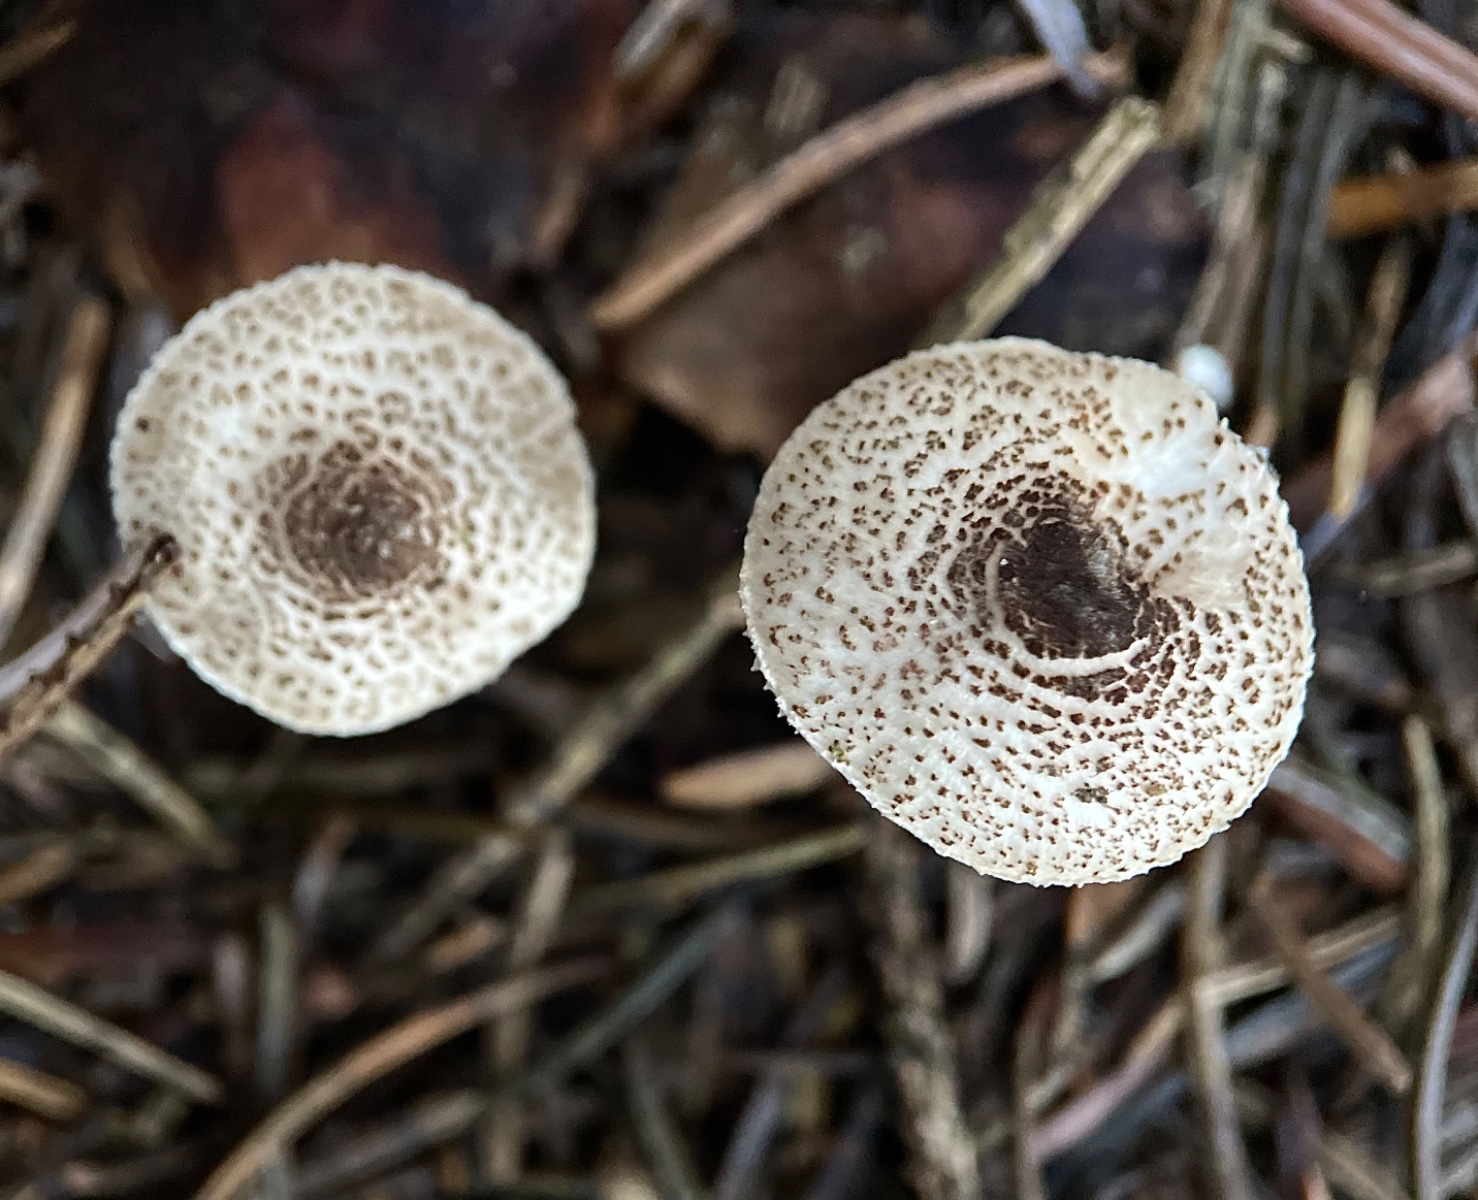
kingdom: Fungi
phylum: Basidiomycota
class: Agaricomycetes
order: Agaricales
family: Agaricaceae
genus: Lepiota
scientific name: Lepiota felina
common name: sortskællet parasolhat
